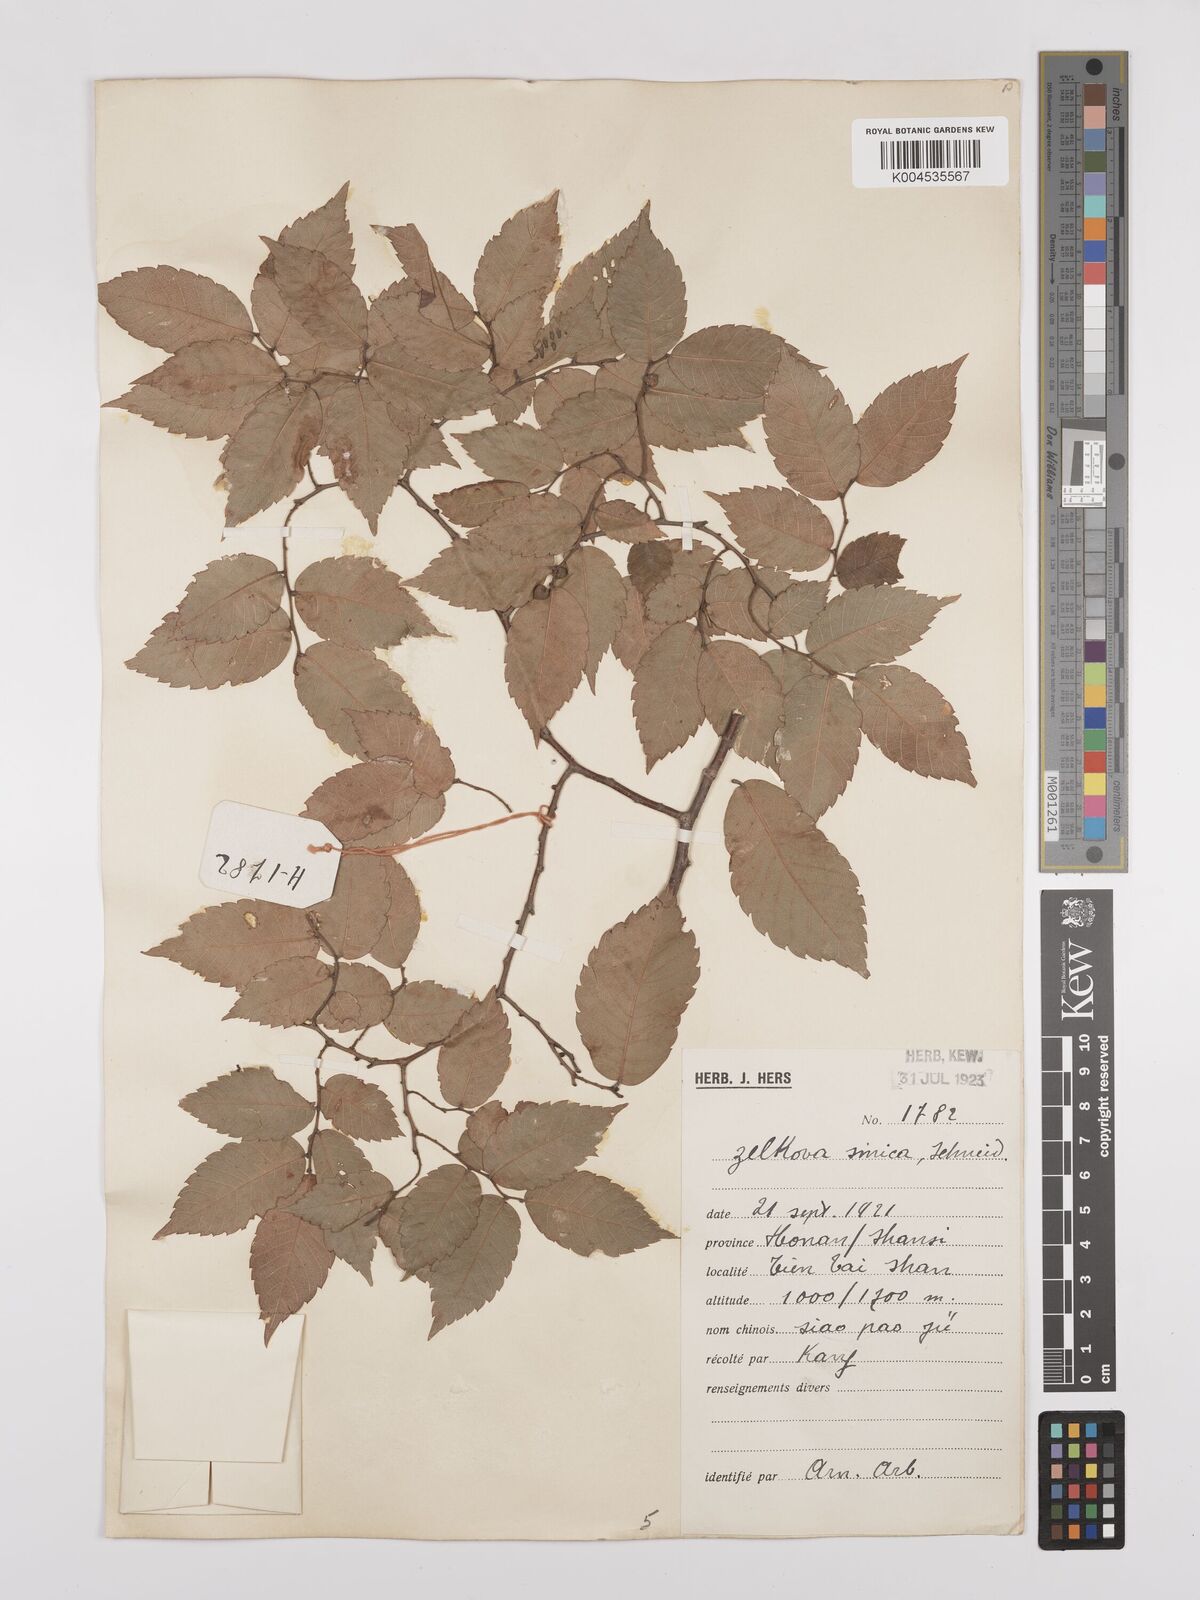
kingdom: Plantae
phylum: Tracheophyta
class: Magnoliopsida
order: Rosales
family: Ulmaceae
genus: Zelkova
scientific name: Zelkova schneideriana
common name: Schneider’s zelkova
